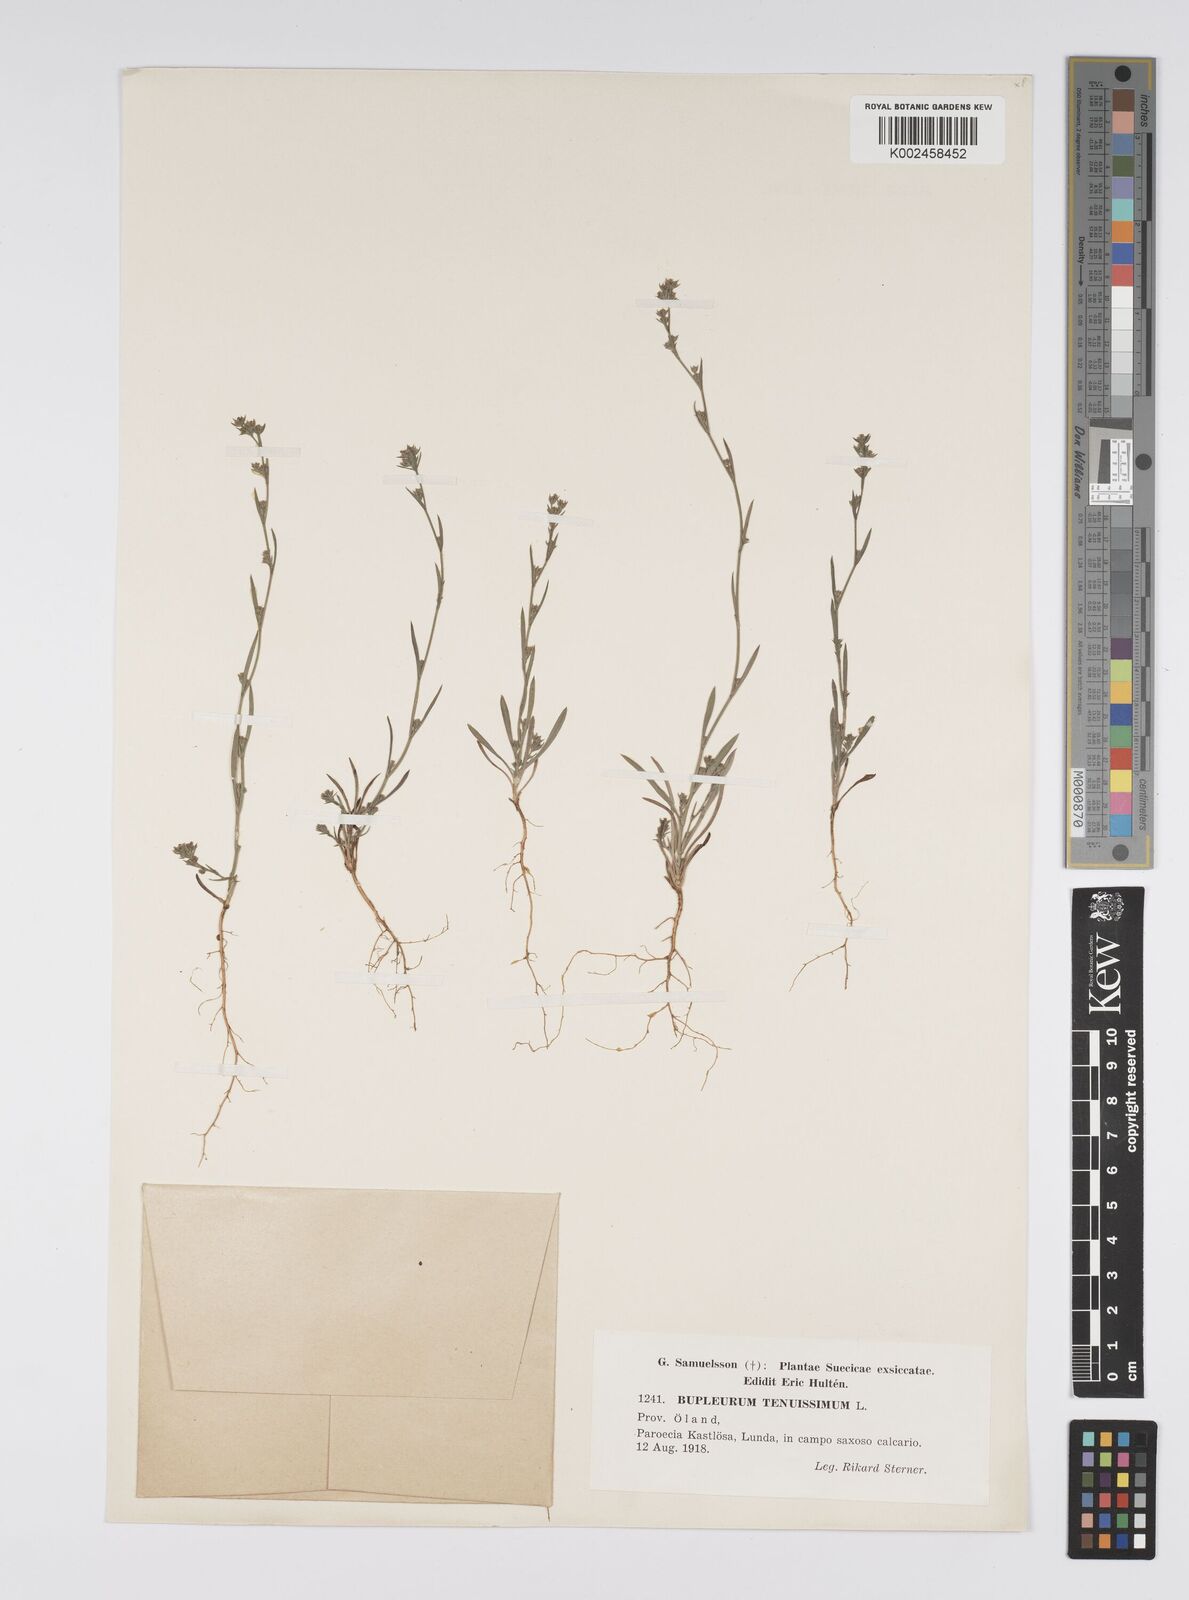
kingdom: Plantae
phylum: Tracheophyta
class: Magnoliopsida
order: Apiales
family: Apiaceae
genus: Bupleurum
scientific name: Bupleurum tenuissimum
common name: Slender hare's-ear
